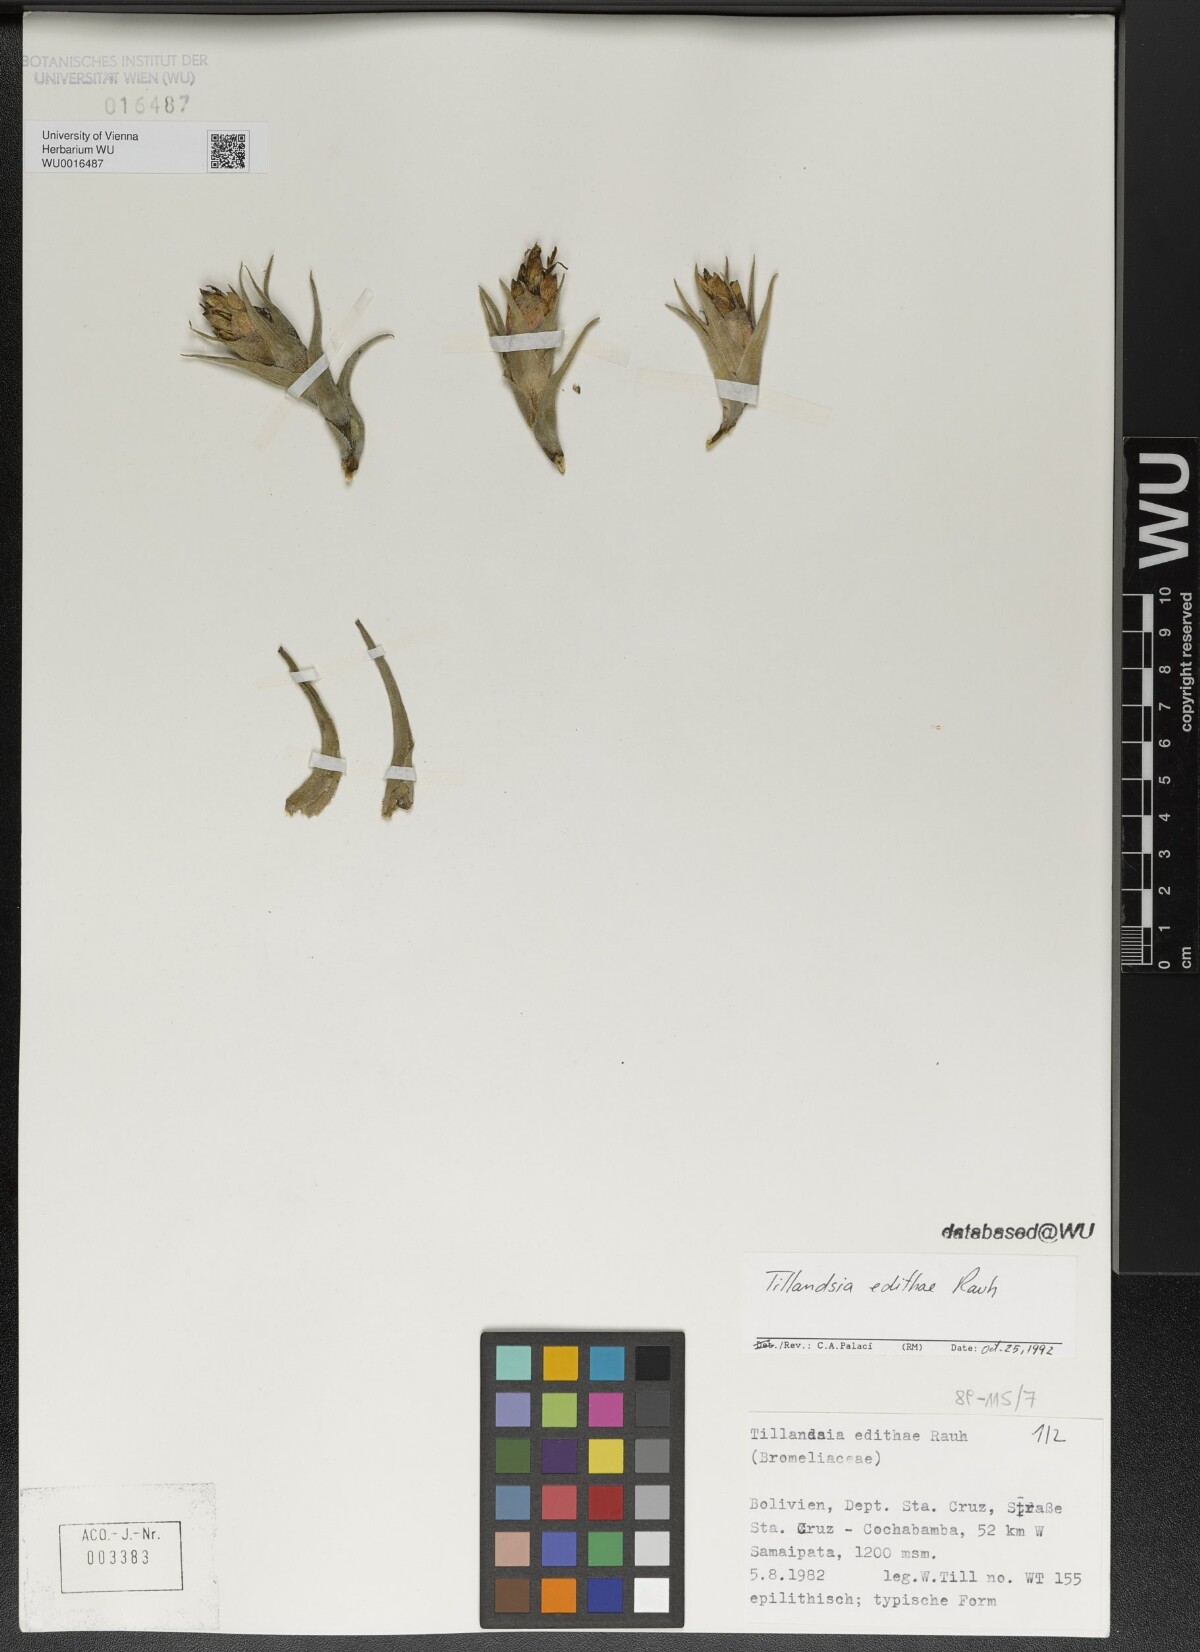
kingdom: Plantae
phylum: Tracheophyta
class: Liliopsida
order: Poales
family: Bromeliaceae
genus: Tillandsia
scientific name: Tillandsia edithae
